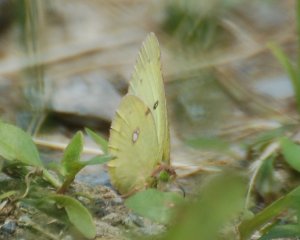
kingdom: Animalia
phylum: Arthropoda
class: Insecta
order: Lepidoptera
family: Pieridae
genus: Colias
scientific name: Colias philodice
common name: Clouded Sulphur
